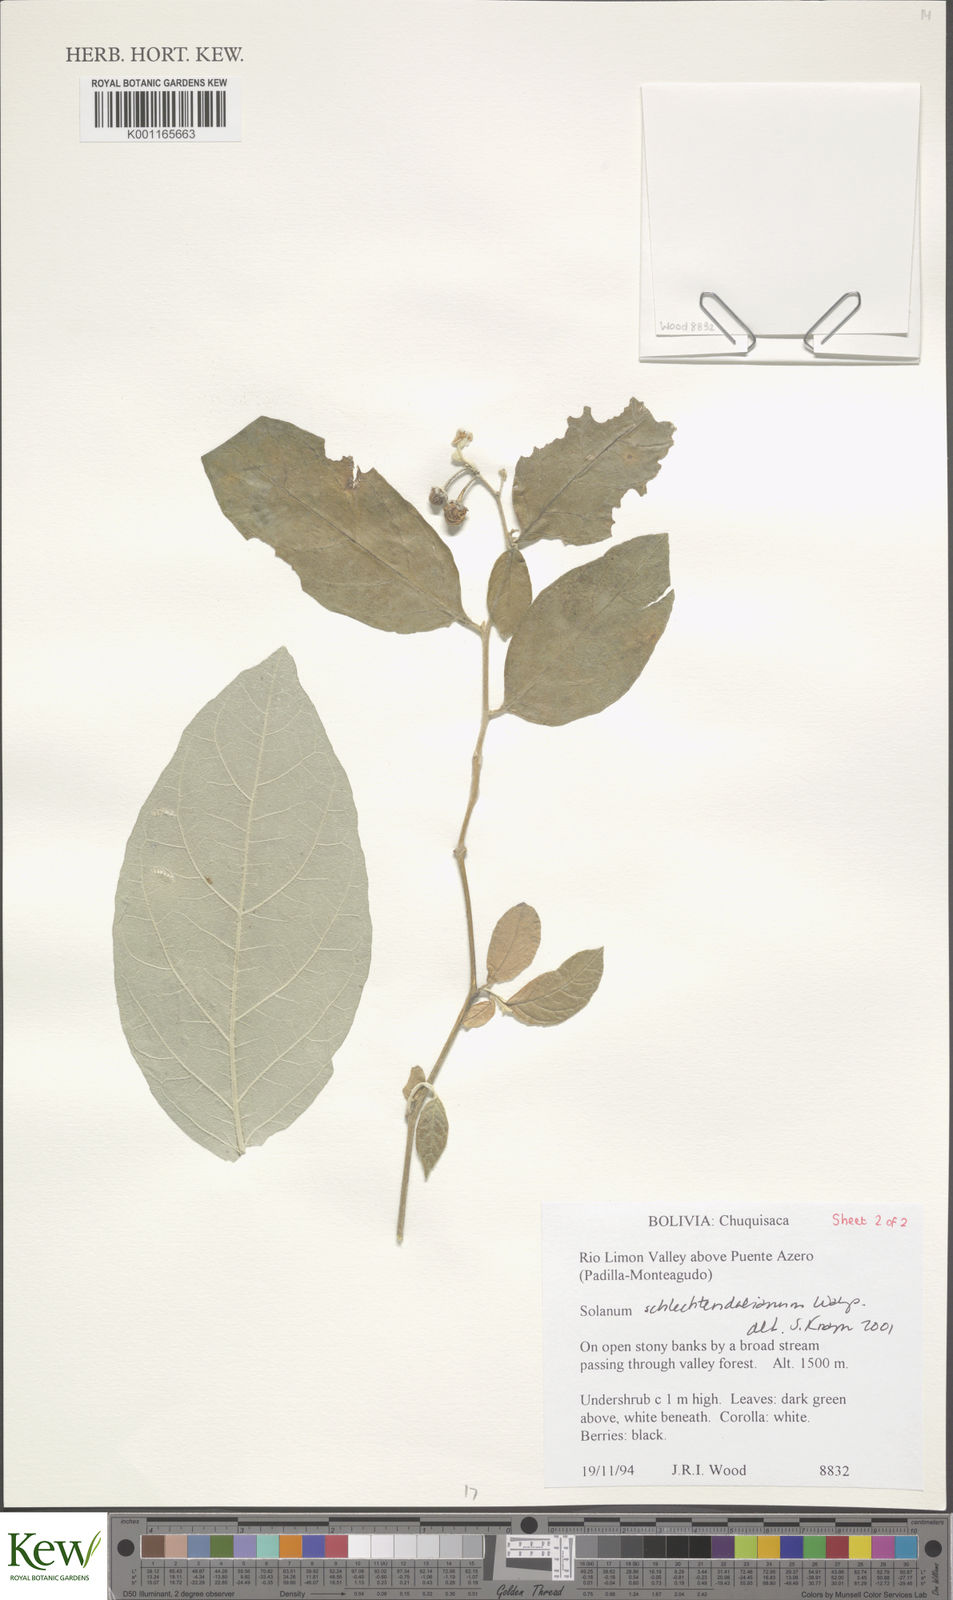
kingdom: Plantae
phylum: Tracheophyta
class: Magnoliopsida
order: Solanales
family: Solanaceae
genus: Solanum
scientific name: Solanum schlechtendalianum
